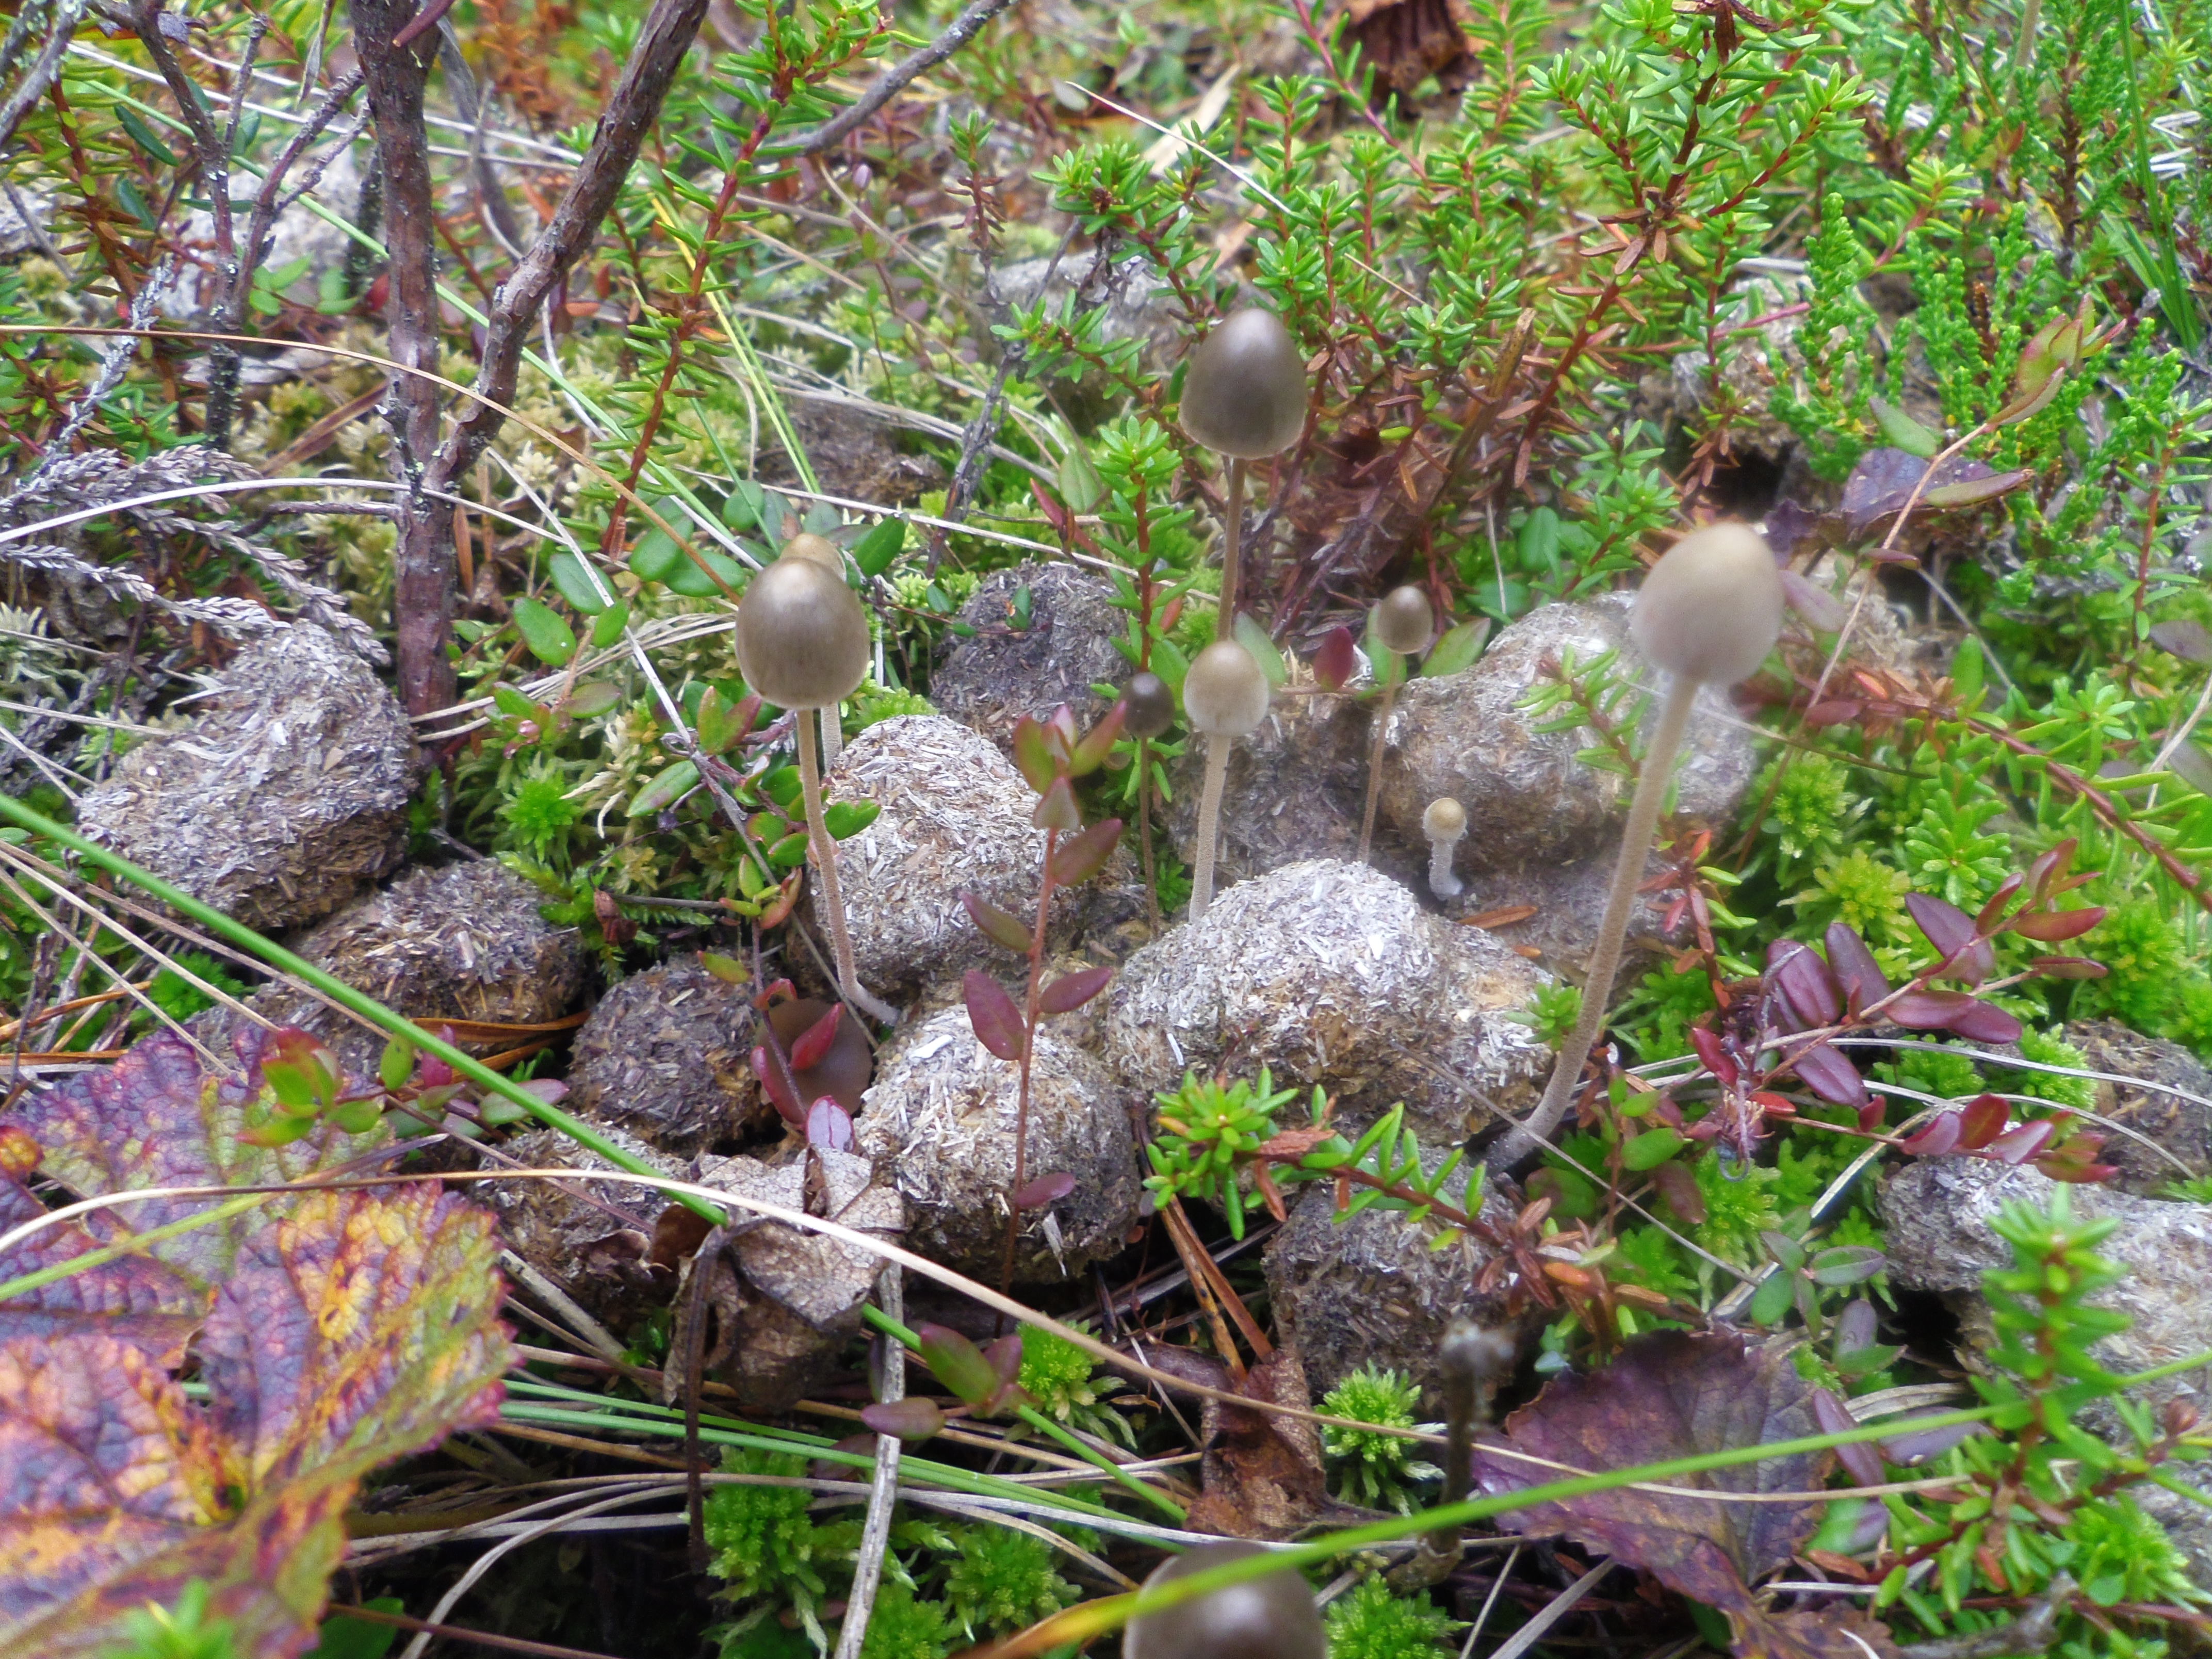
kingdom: Fungi
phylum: Basidiomycota
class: Agaricomycetes
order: Agaricales
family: Bolbitiaceae
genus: Panaeolus
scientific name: Panaeolus alcis
